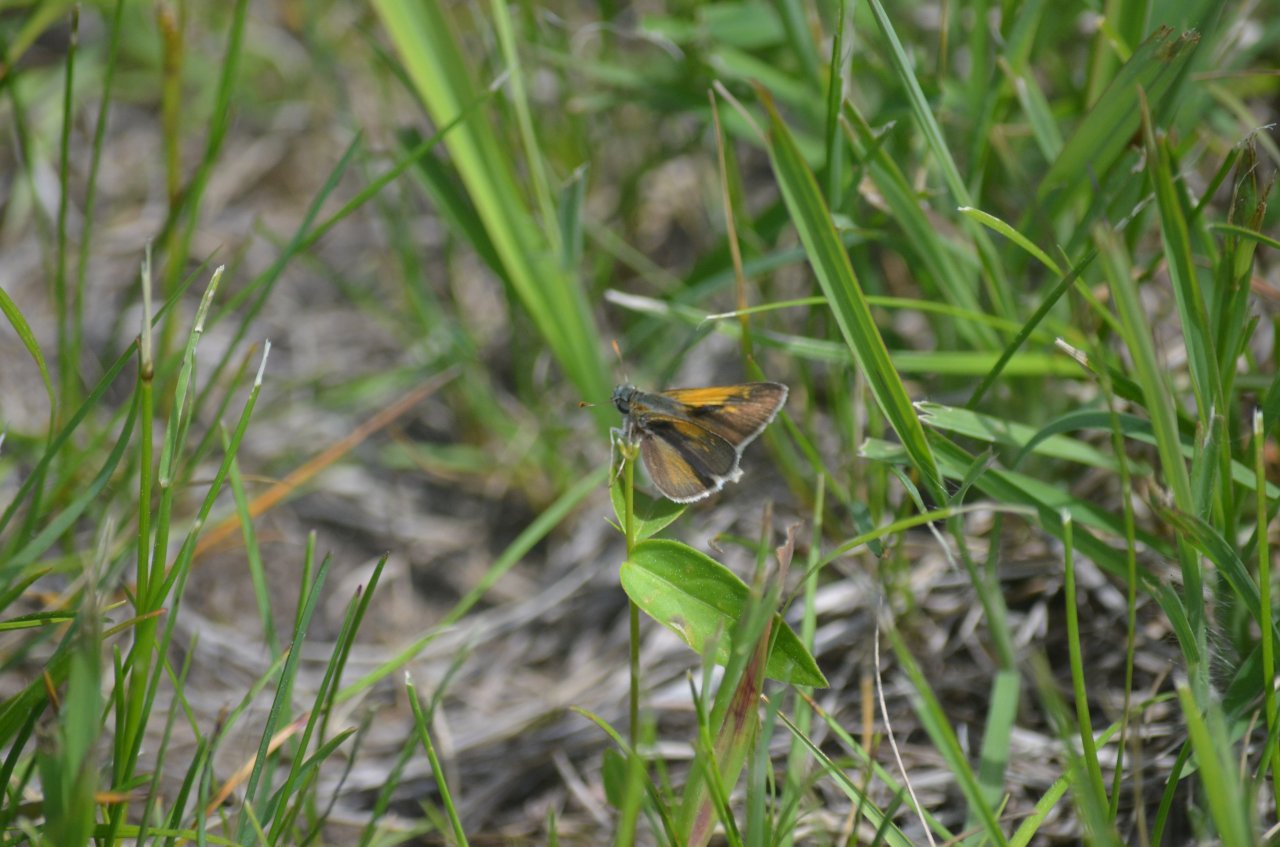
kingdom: Animalia
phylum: Arthropoda
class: Insecta
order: Lepidoptera
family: Hesperiidae
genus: Erynnis
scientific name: Erynnis
